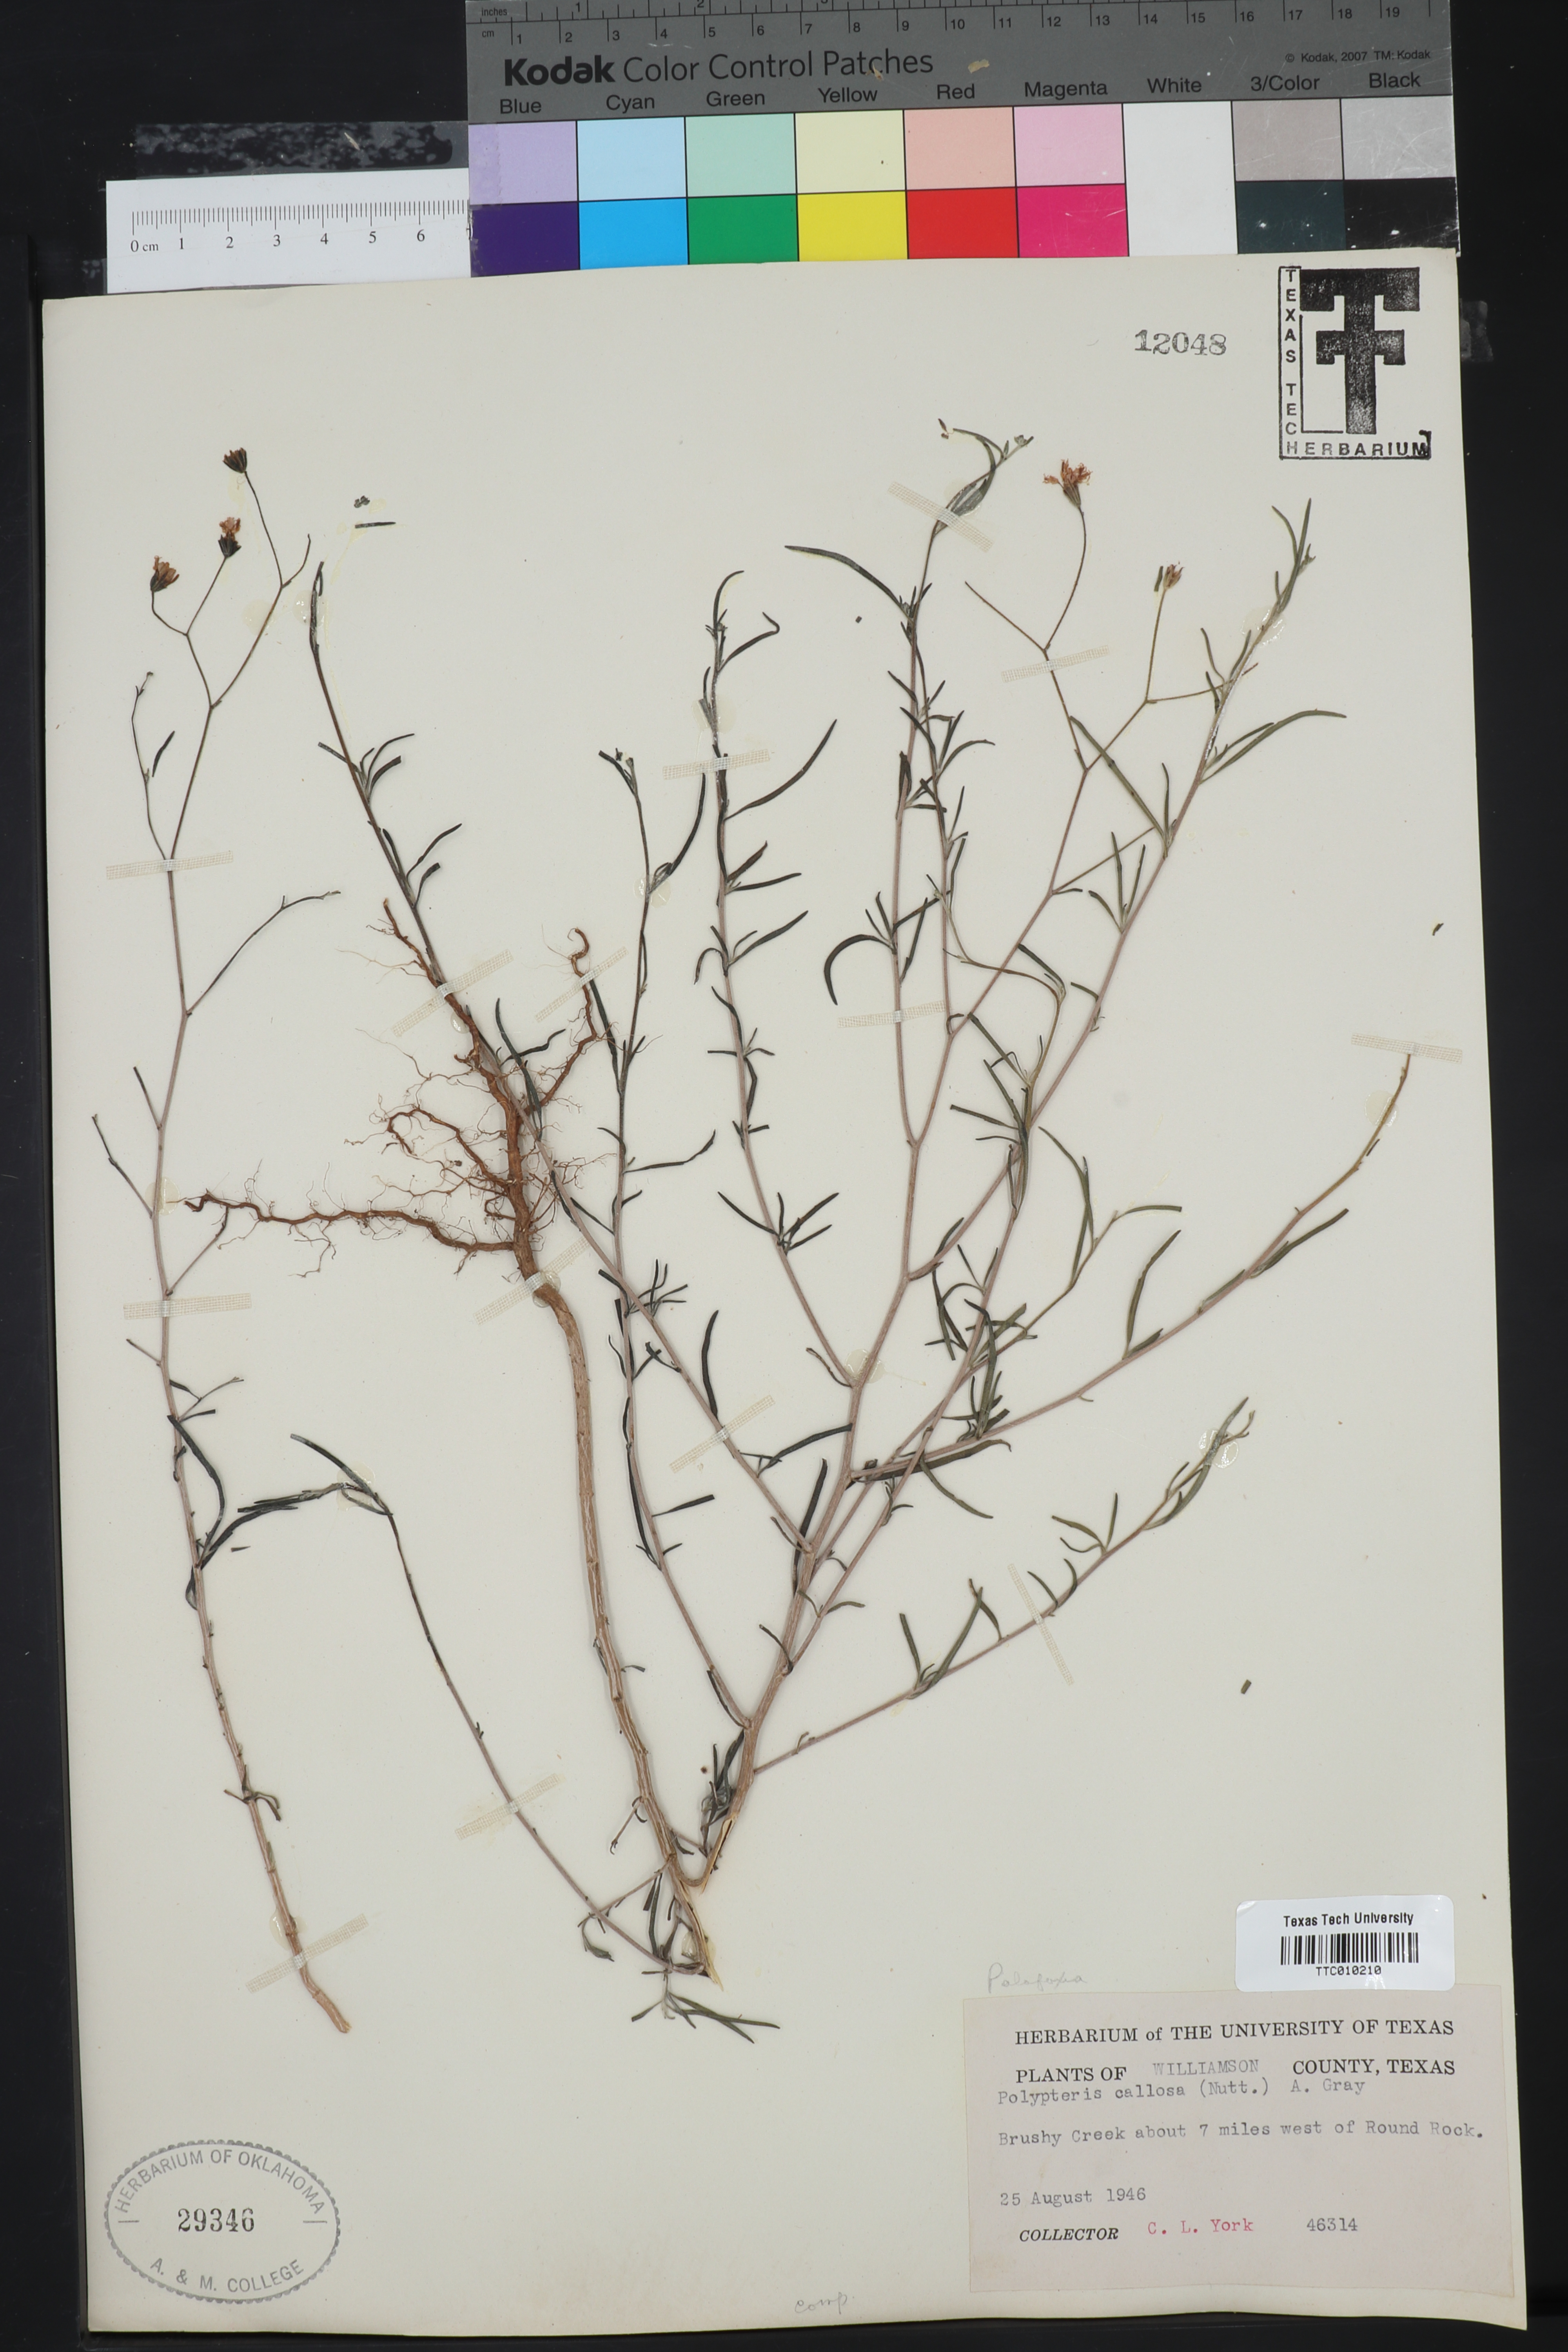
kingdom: Plantae
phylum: Tracheophyta
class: Magnoliopsida
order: Asterales
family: Asteraceae
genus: Palafoxia
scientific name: Palafoxia callosa
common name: Small palafox
